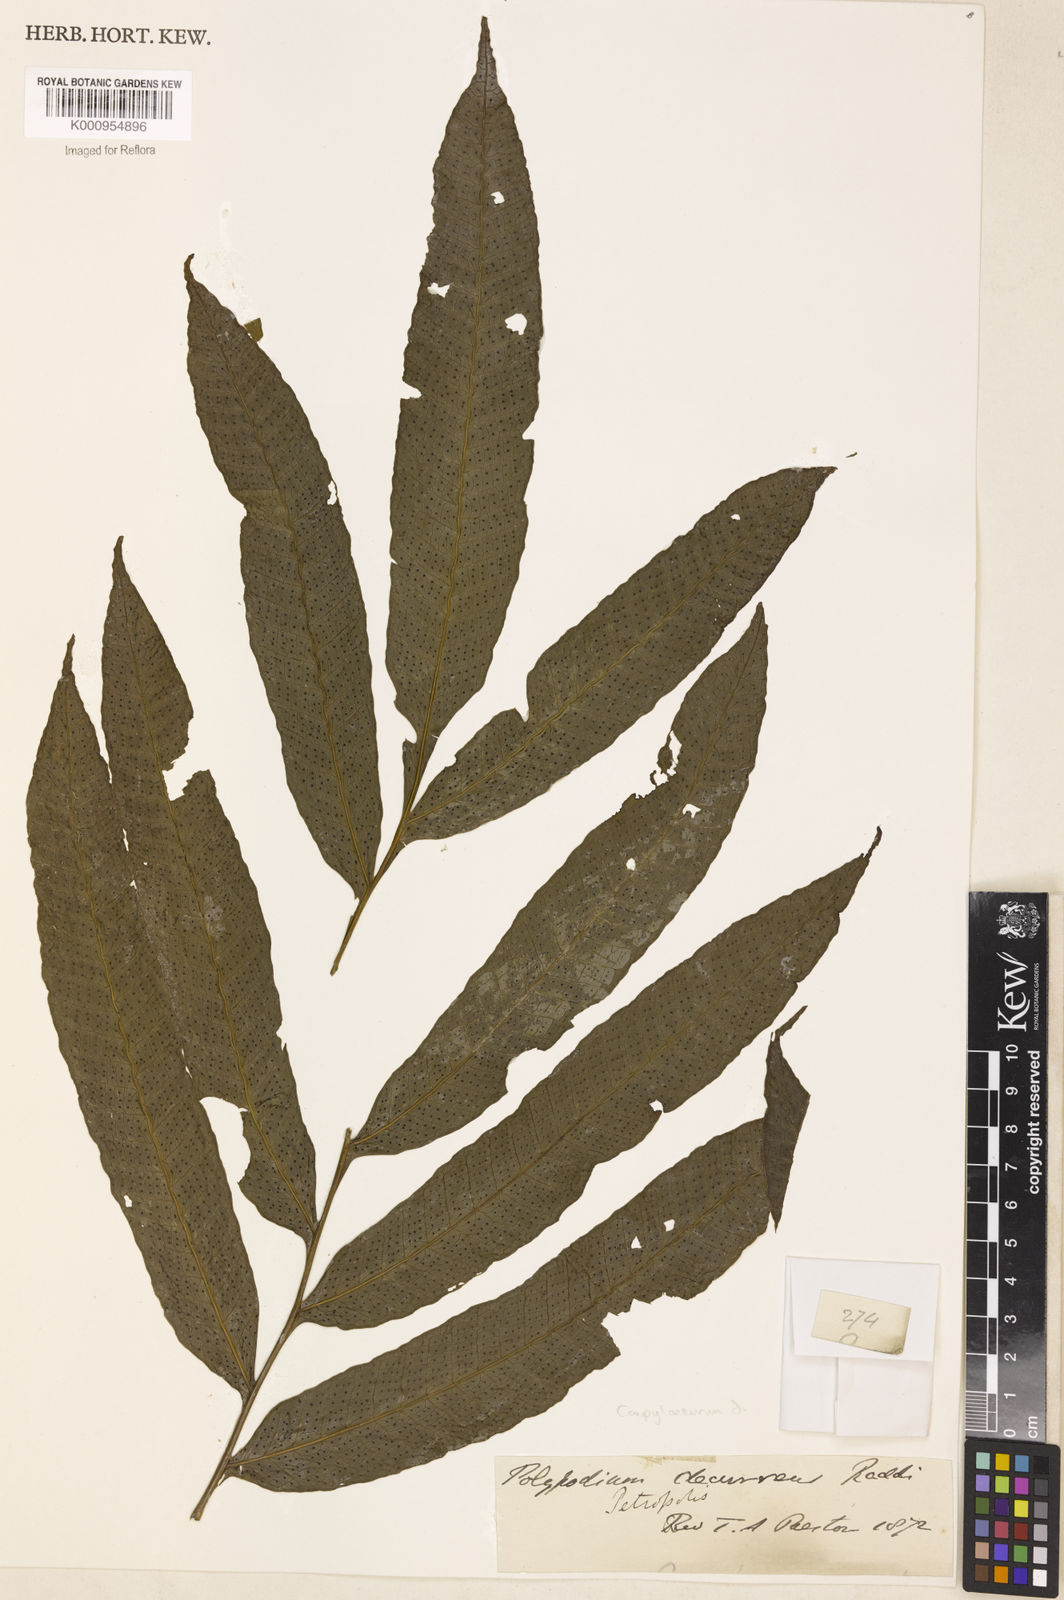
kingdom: Plantae
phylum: Tracheophyta
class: Polypodiopsida
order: Polypodiales
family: Polypodiaceae
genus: Campyloneurum
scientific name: Campyloneurum decurrens
